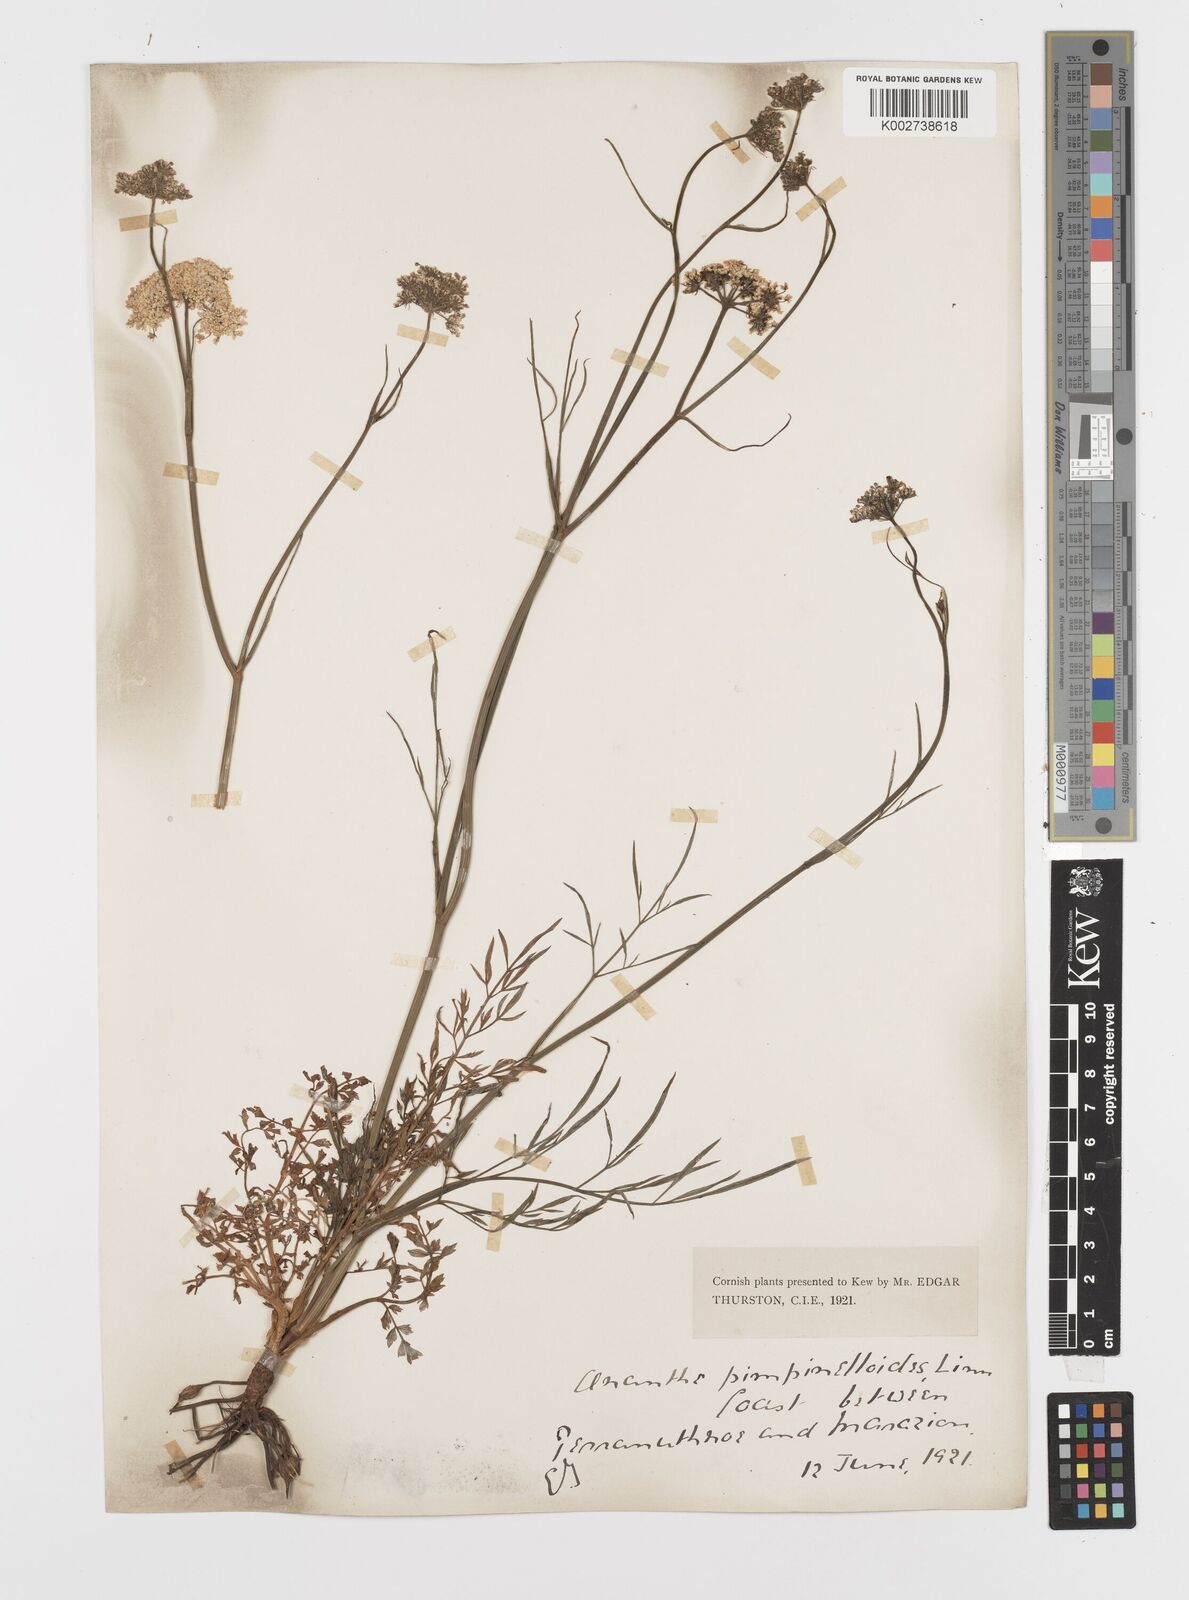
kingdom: Plantae
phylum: Tracheophyta
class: Magnoliopsida
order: Apiales
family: Apiaceae
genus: Oenanthe
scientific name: Oenanthe pimpinelloides
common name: Corky-fruited water-dropwort
